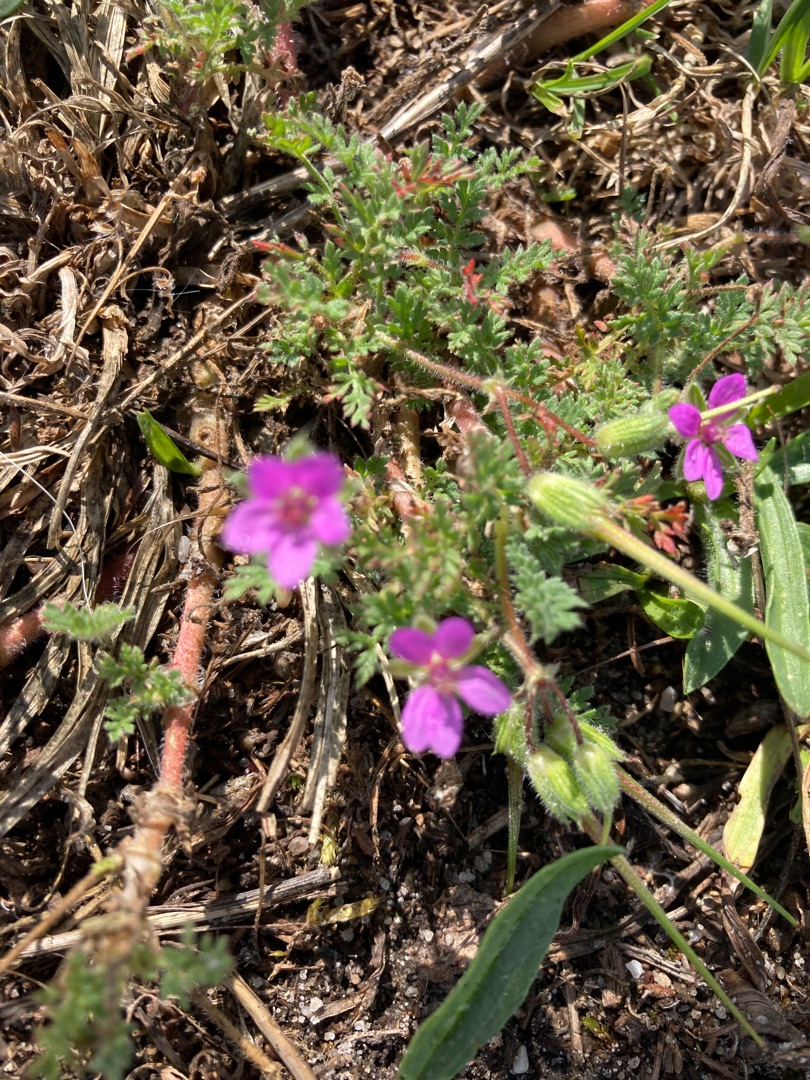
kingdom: Plantae
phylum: Tracheophyta
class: Magnoliopsida
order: Geraniales
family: Geraniaceae
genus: Erodium
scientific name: Erodium cicutarium
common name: Hejrenæb
